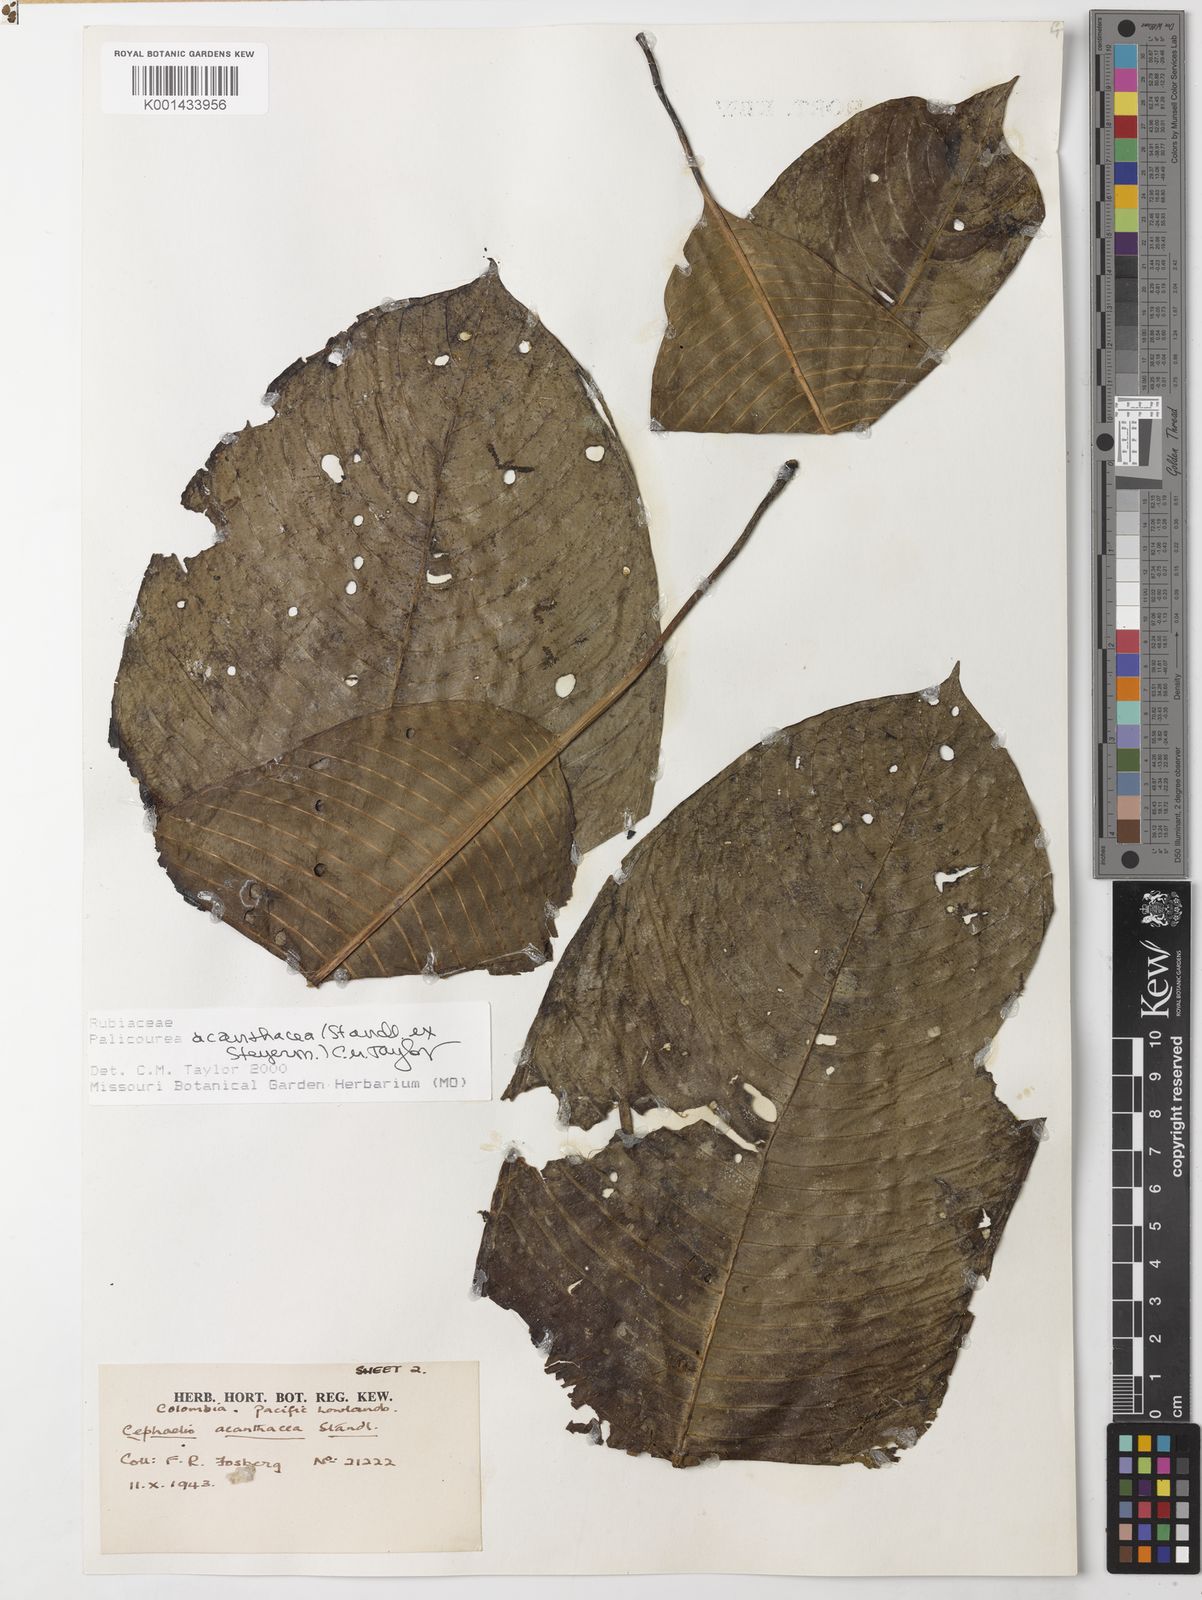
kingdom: Plantae
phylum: Tracheophyta
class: Magnoliopsida
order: Gentianales
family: Rubiaceae
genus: Palicourea
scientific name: Palicourea acanthacea
